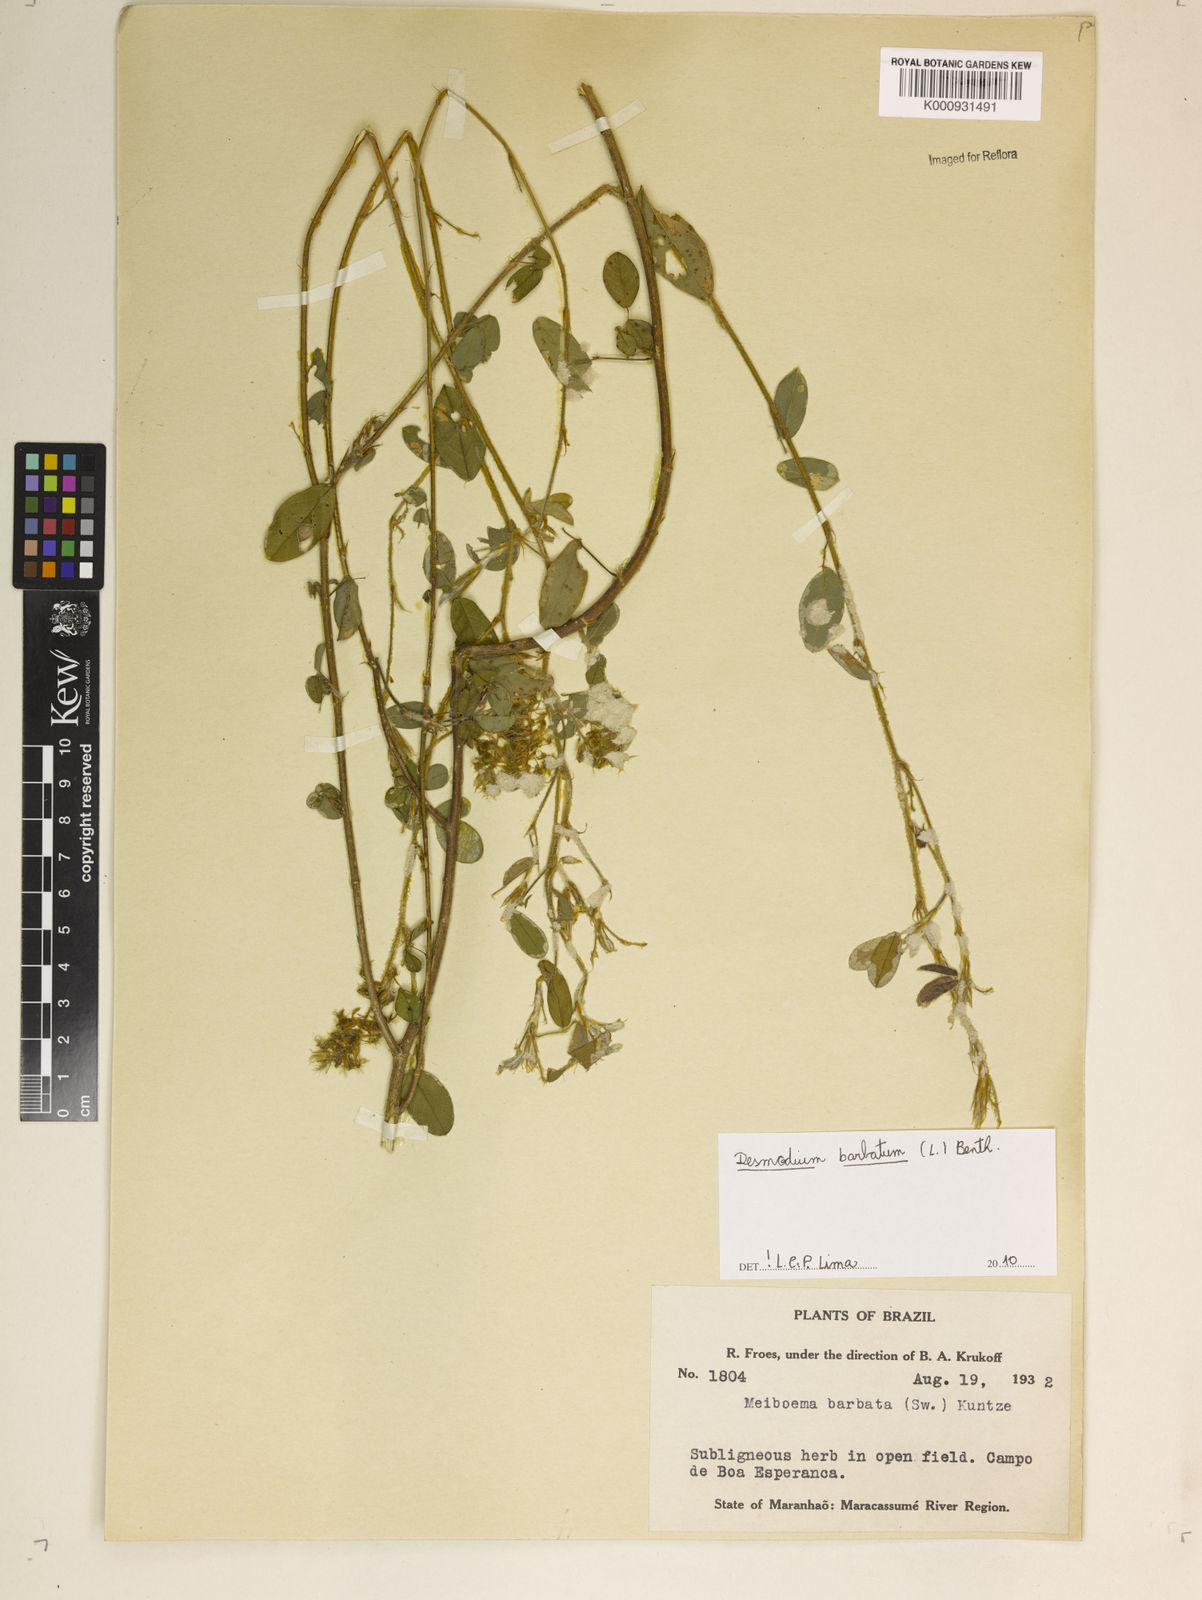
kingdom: Plantae
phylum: Tracheophyta
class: Magnoliopsida
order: Fabales
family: Fabaceae
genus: Grona
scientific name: Grona barbata
